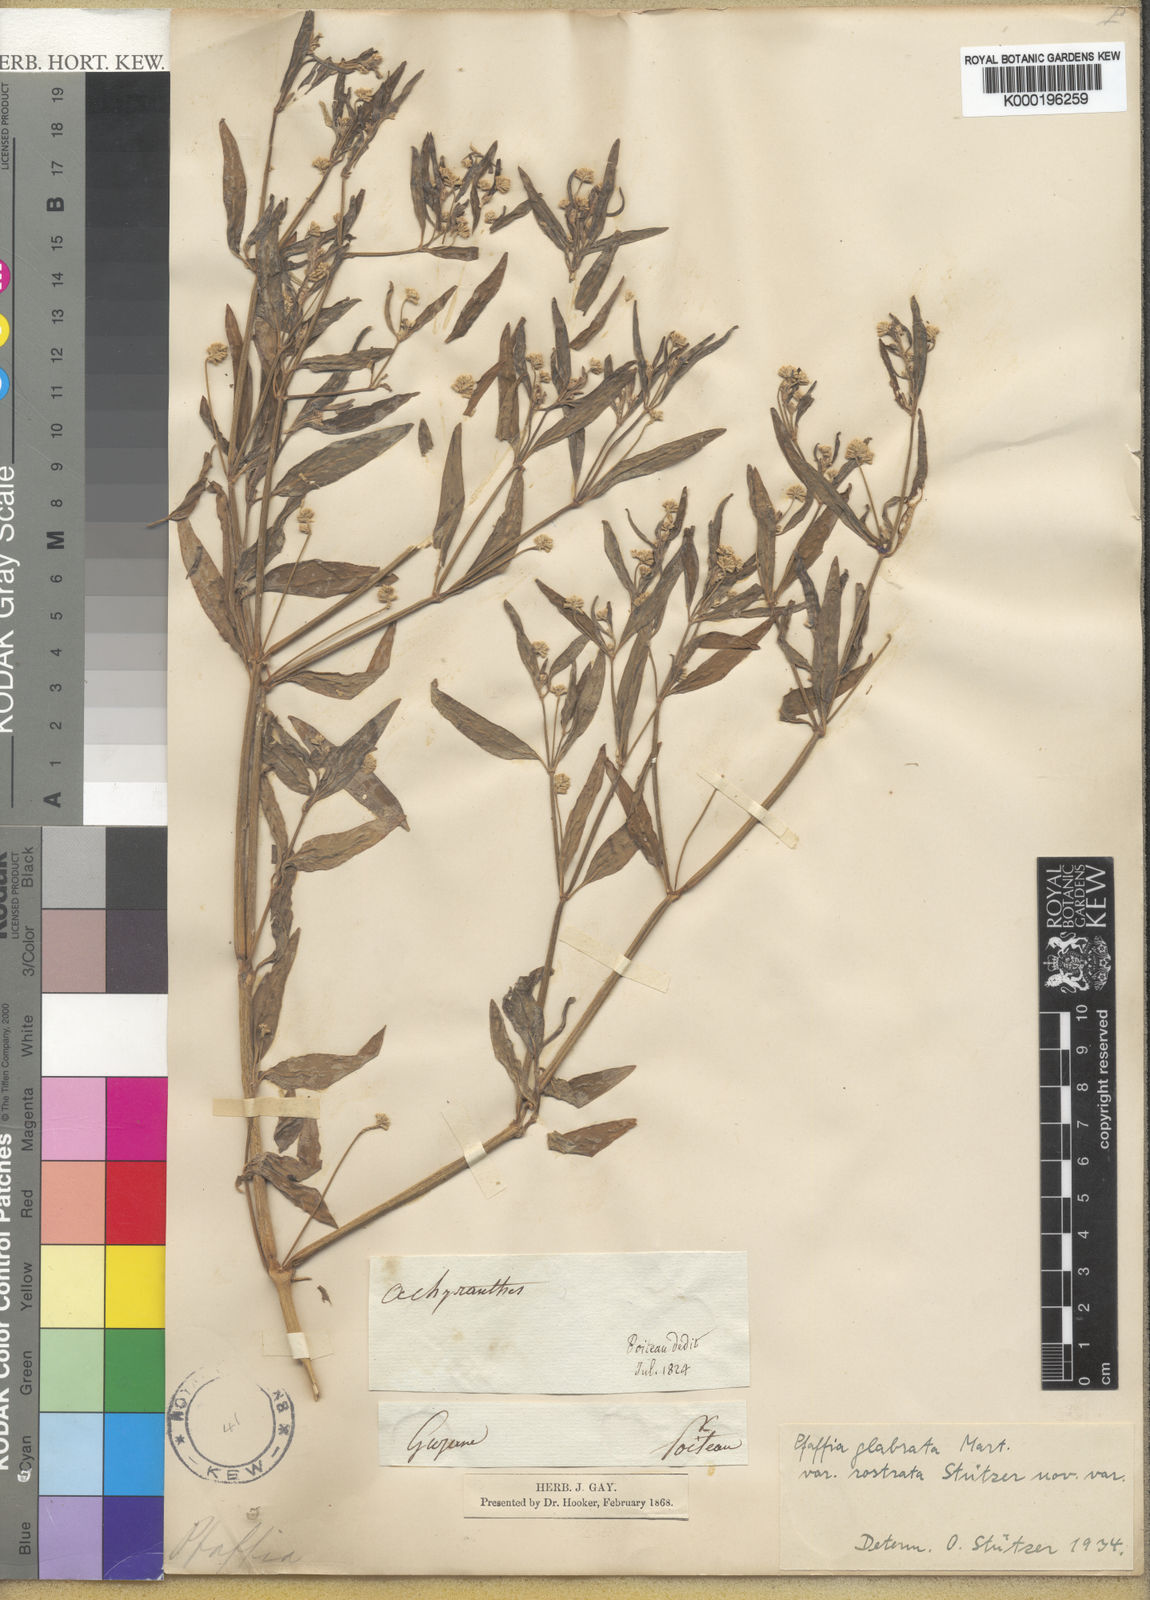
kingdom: Plantae
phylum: Tracheophyta
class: Magnoliopsida
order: Caryophyllales
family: Amaranthaceae
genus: Pfaffia
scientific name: Pfaffia
